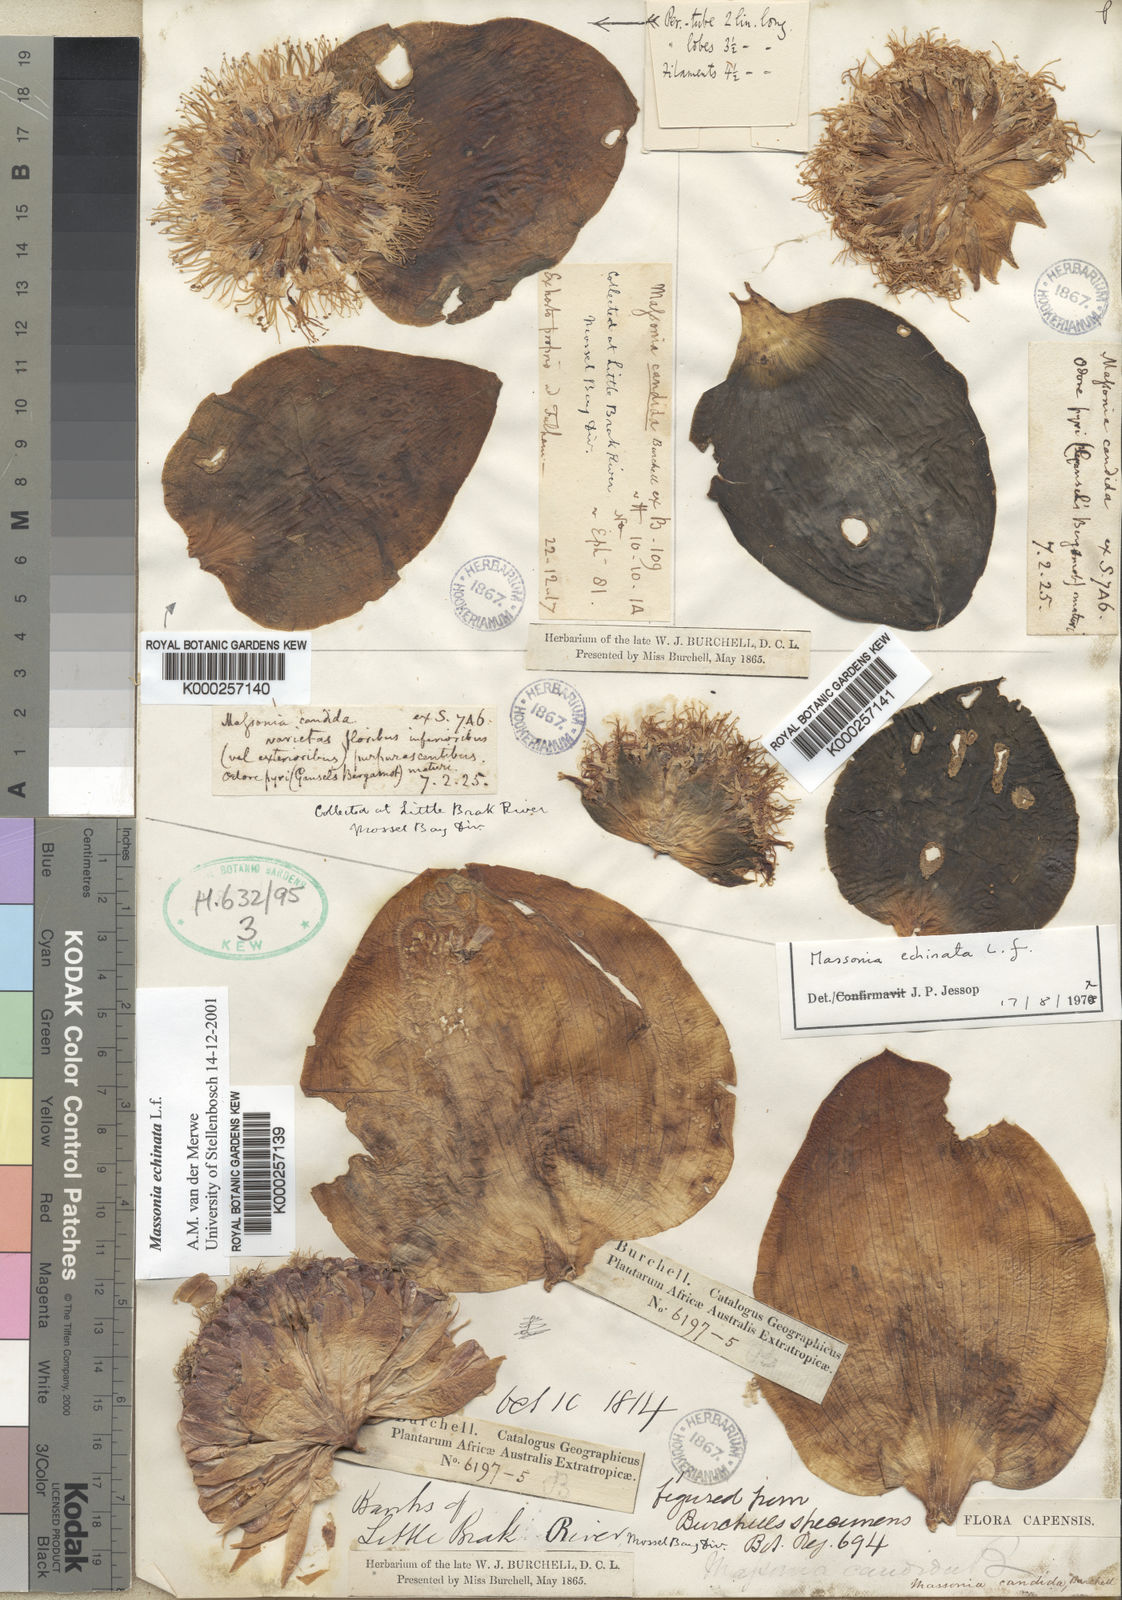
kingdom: Plantae
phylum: Tracheophyta
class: Liliopsida
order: Asparagales
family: Asparagaceae
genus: Massonia
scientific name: Massonia echinata
